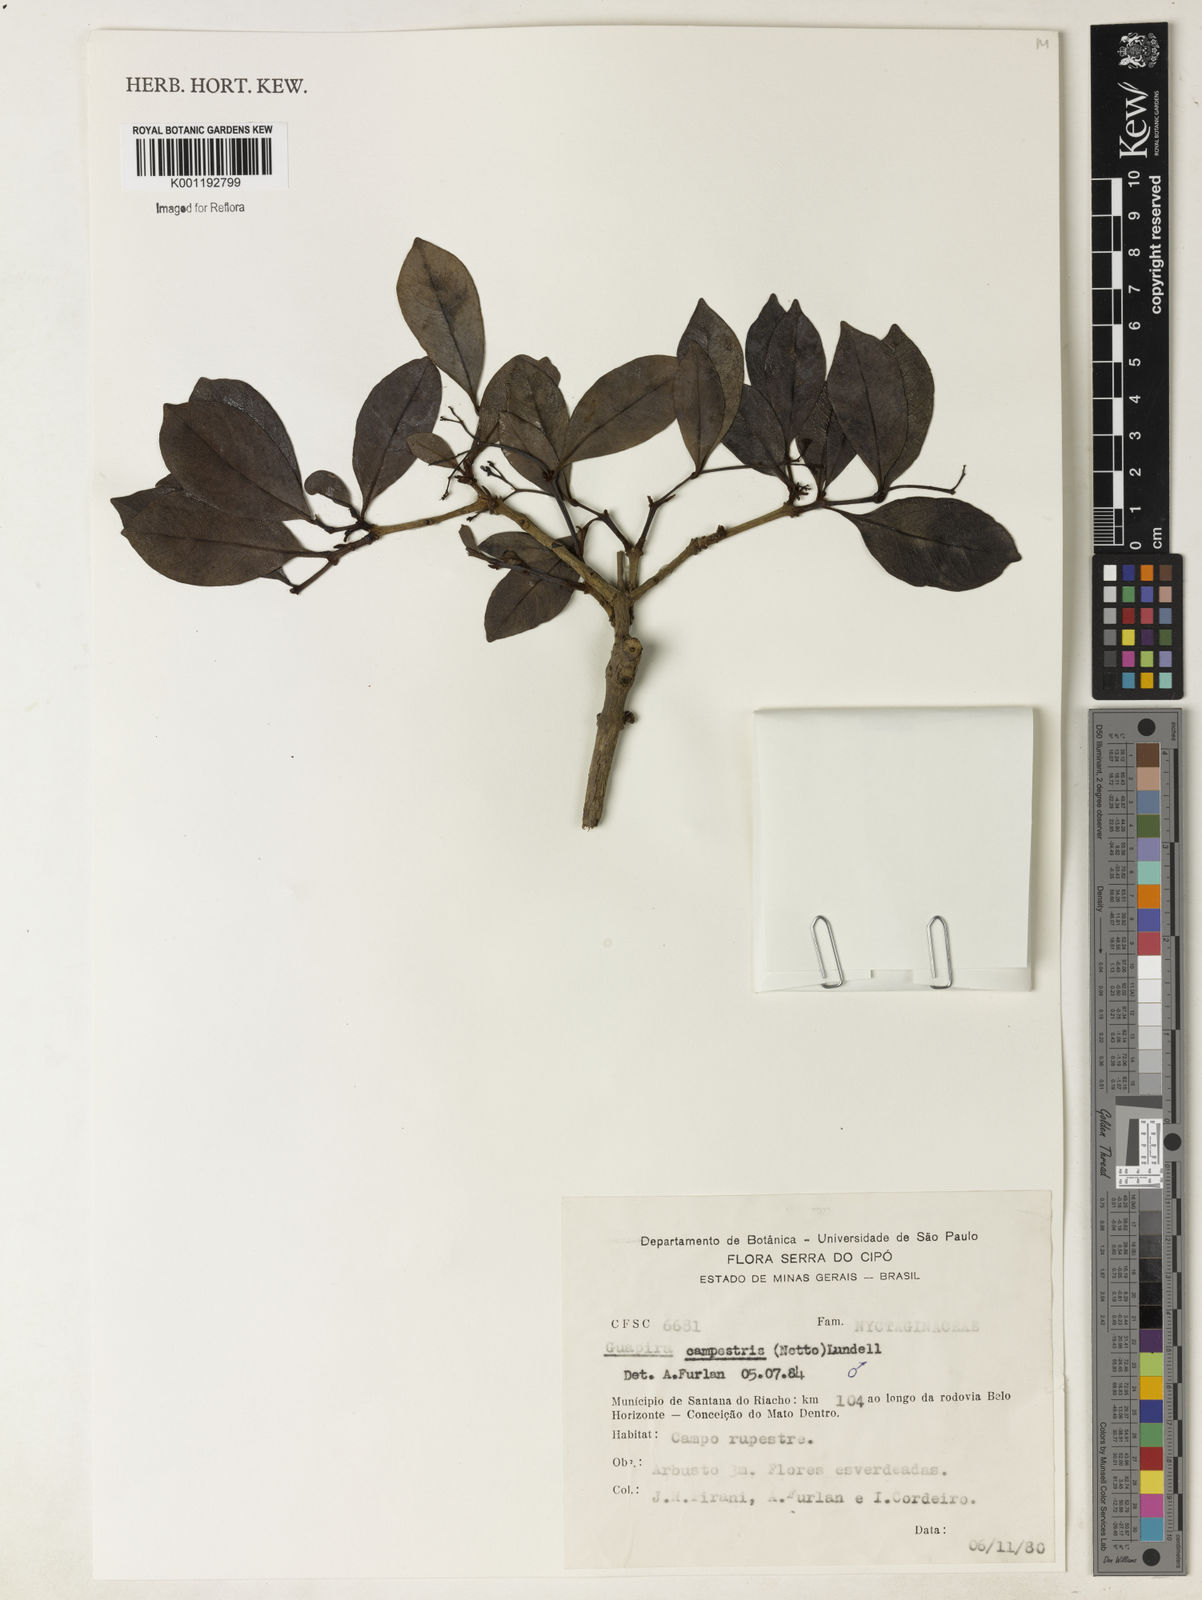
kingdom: Plantae
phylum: Tracheophyta
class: Magnoliopsida
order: Caryophyllales
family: Nyctaginaceae
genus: Guapira
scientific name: Guapira campestris
